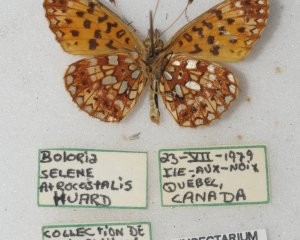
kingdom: Animalia
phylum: Arthropoda
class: Insecta
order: Lepidoptera
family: Nymphalidae
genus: Boloria
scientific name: Boloria selene
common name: Silver-bordered Fritillary
